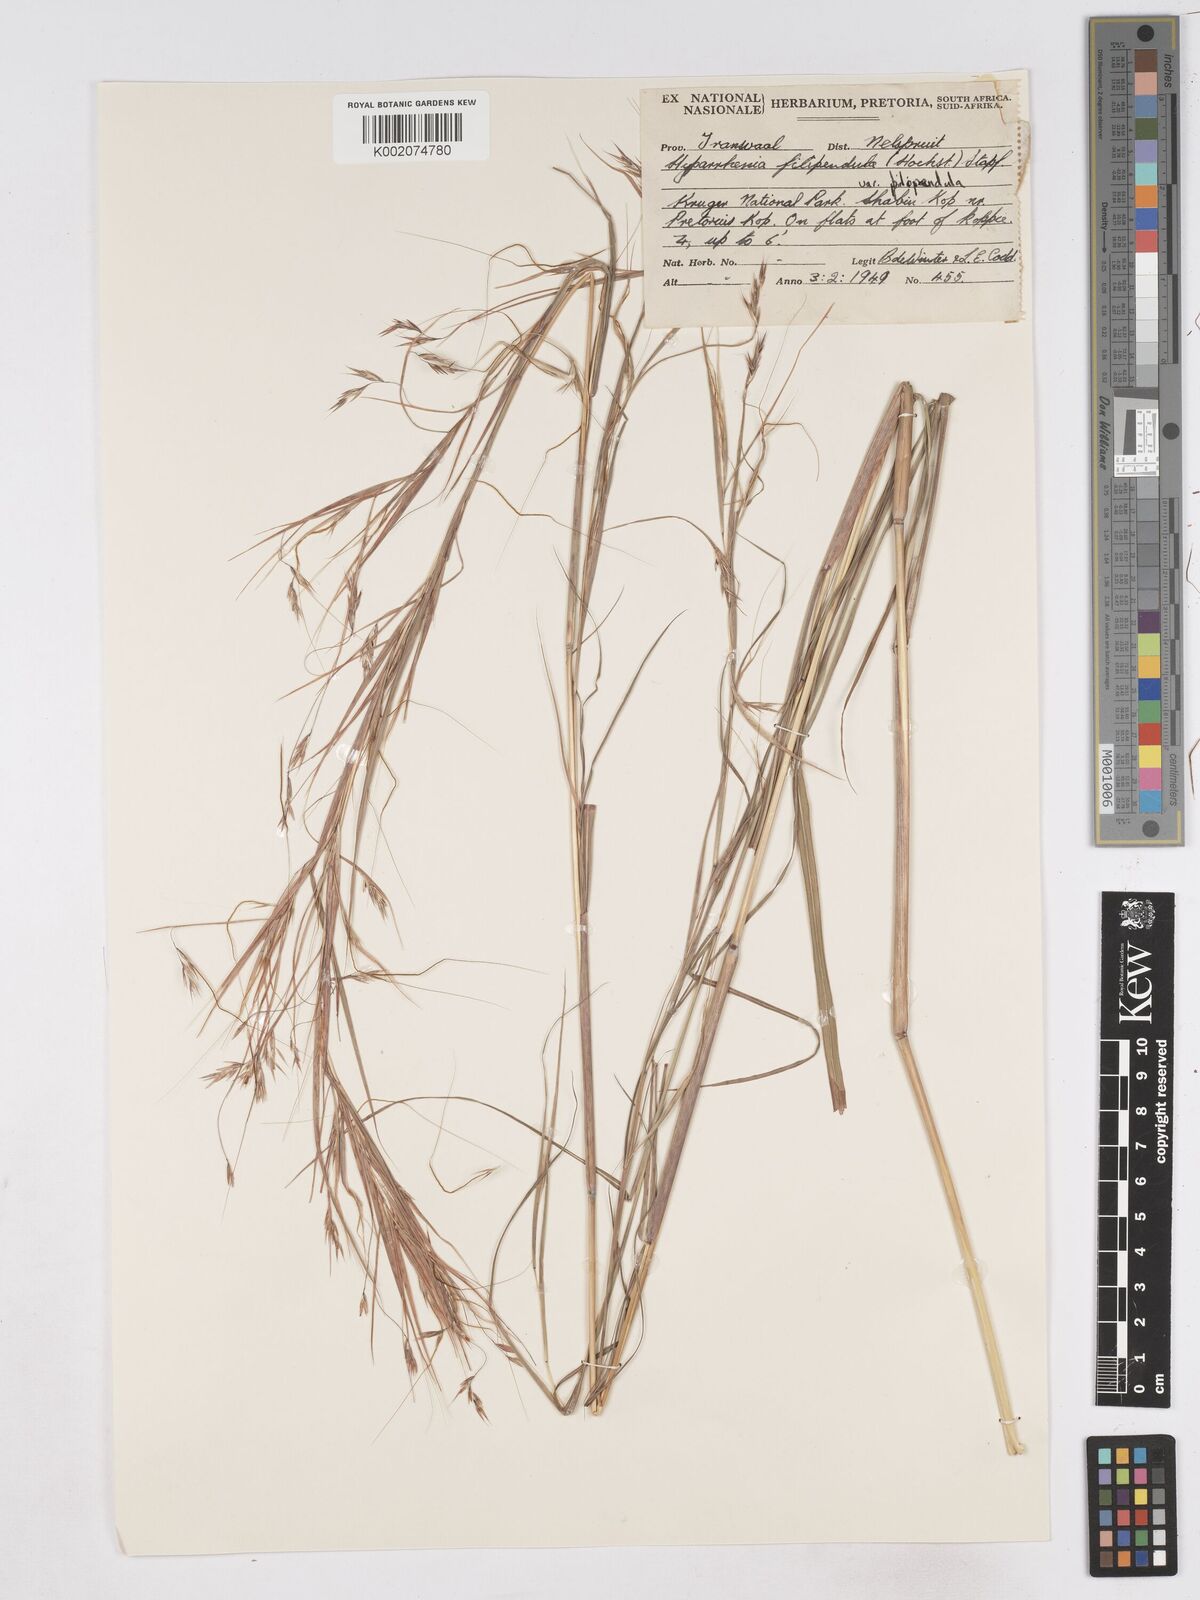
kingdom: Plantae
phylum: Tracheophyta
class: Liliopsida
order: Poales
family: Poaceae
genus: Hyparrhenia
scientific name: Hyparrhenia filipendula
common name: Tambookie grass
